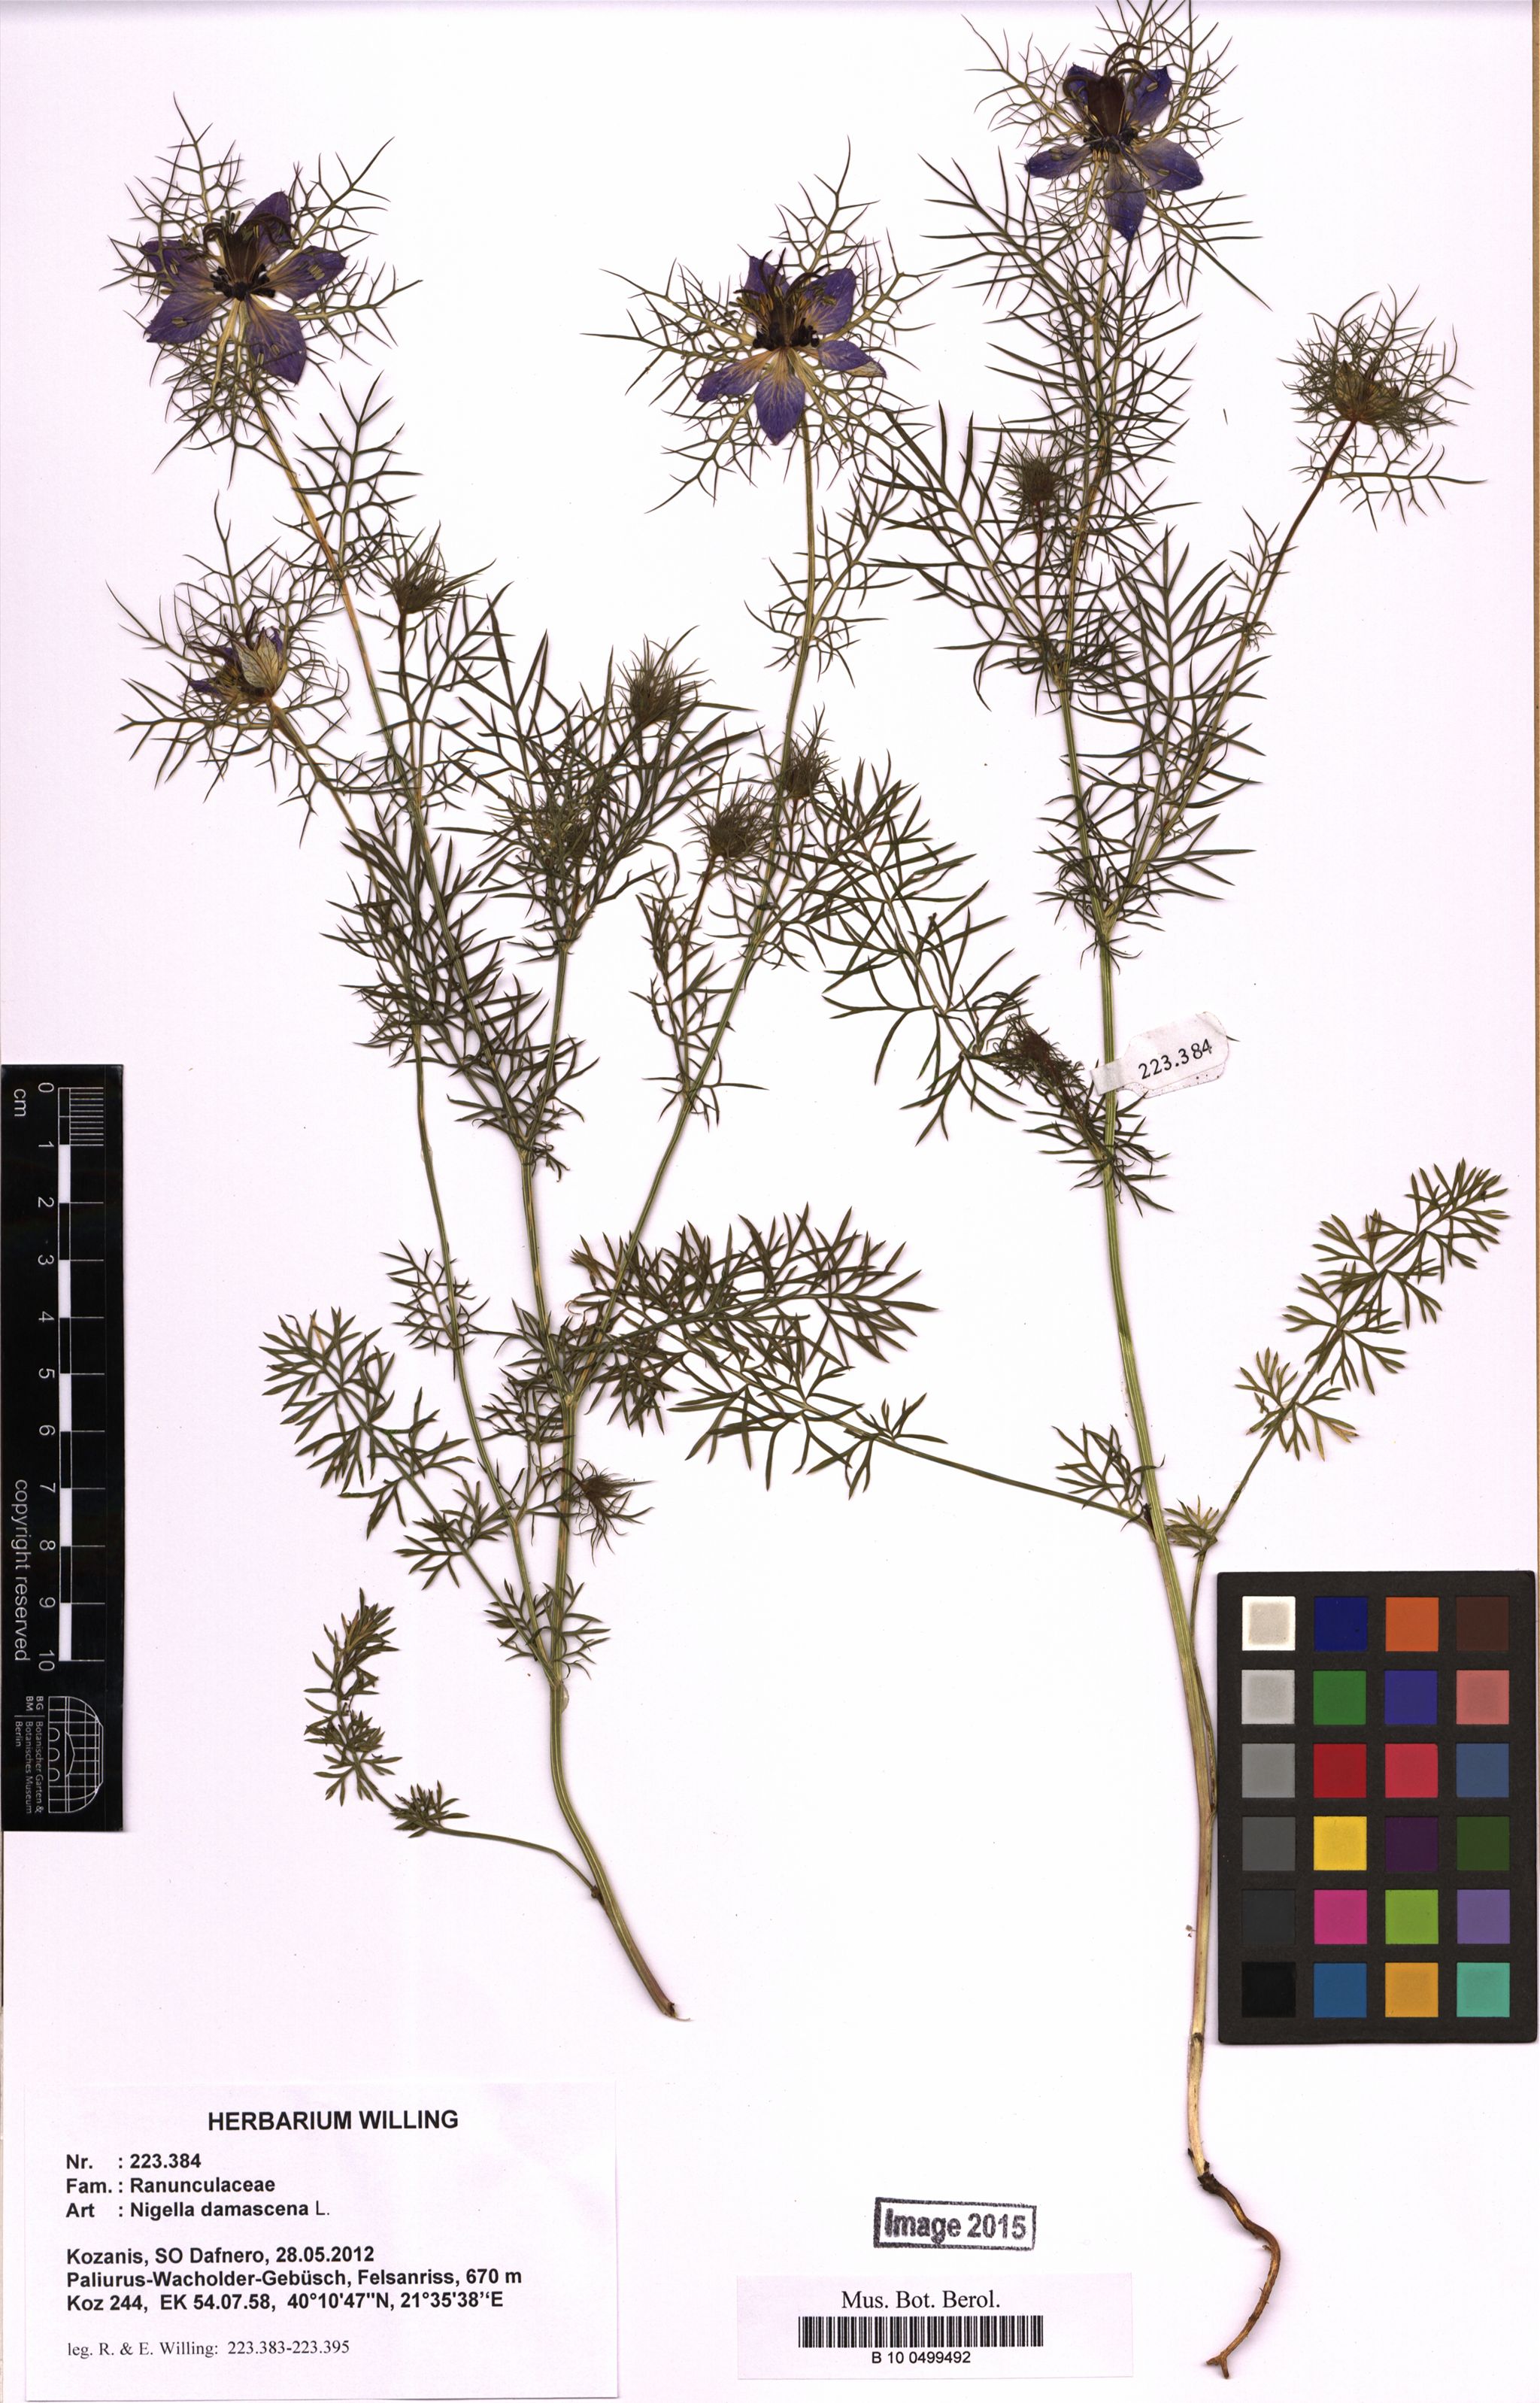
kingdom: Plantae
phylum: Tracheophyta
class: Magnoliopsida
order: Ranunculales
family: Ranunculaceae
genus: Nigella
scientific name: Nigella damascena
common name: Love-in-a-mist
